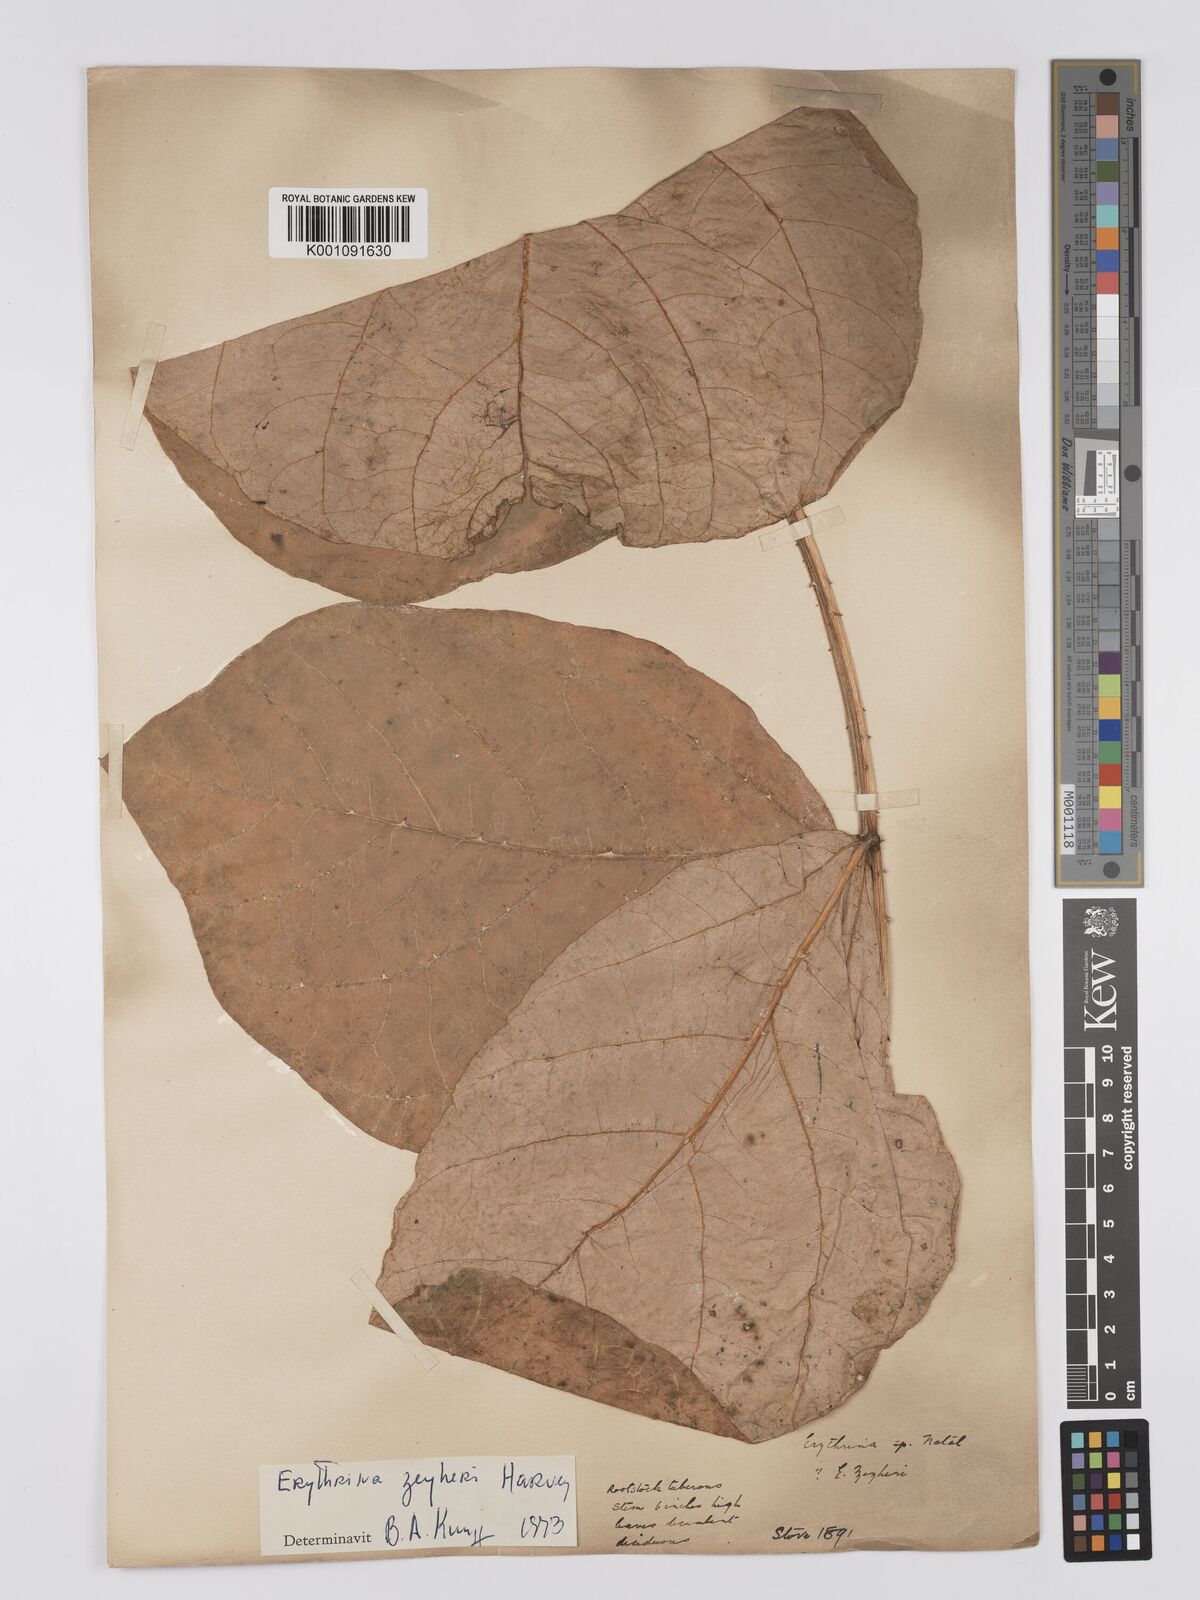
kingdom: Plantae
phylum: Tracheophyta
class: Magnoliopsida
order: Fabales
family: Fabaceae
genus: Erythrina
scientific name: Erythrina zeyheri
